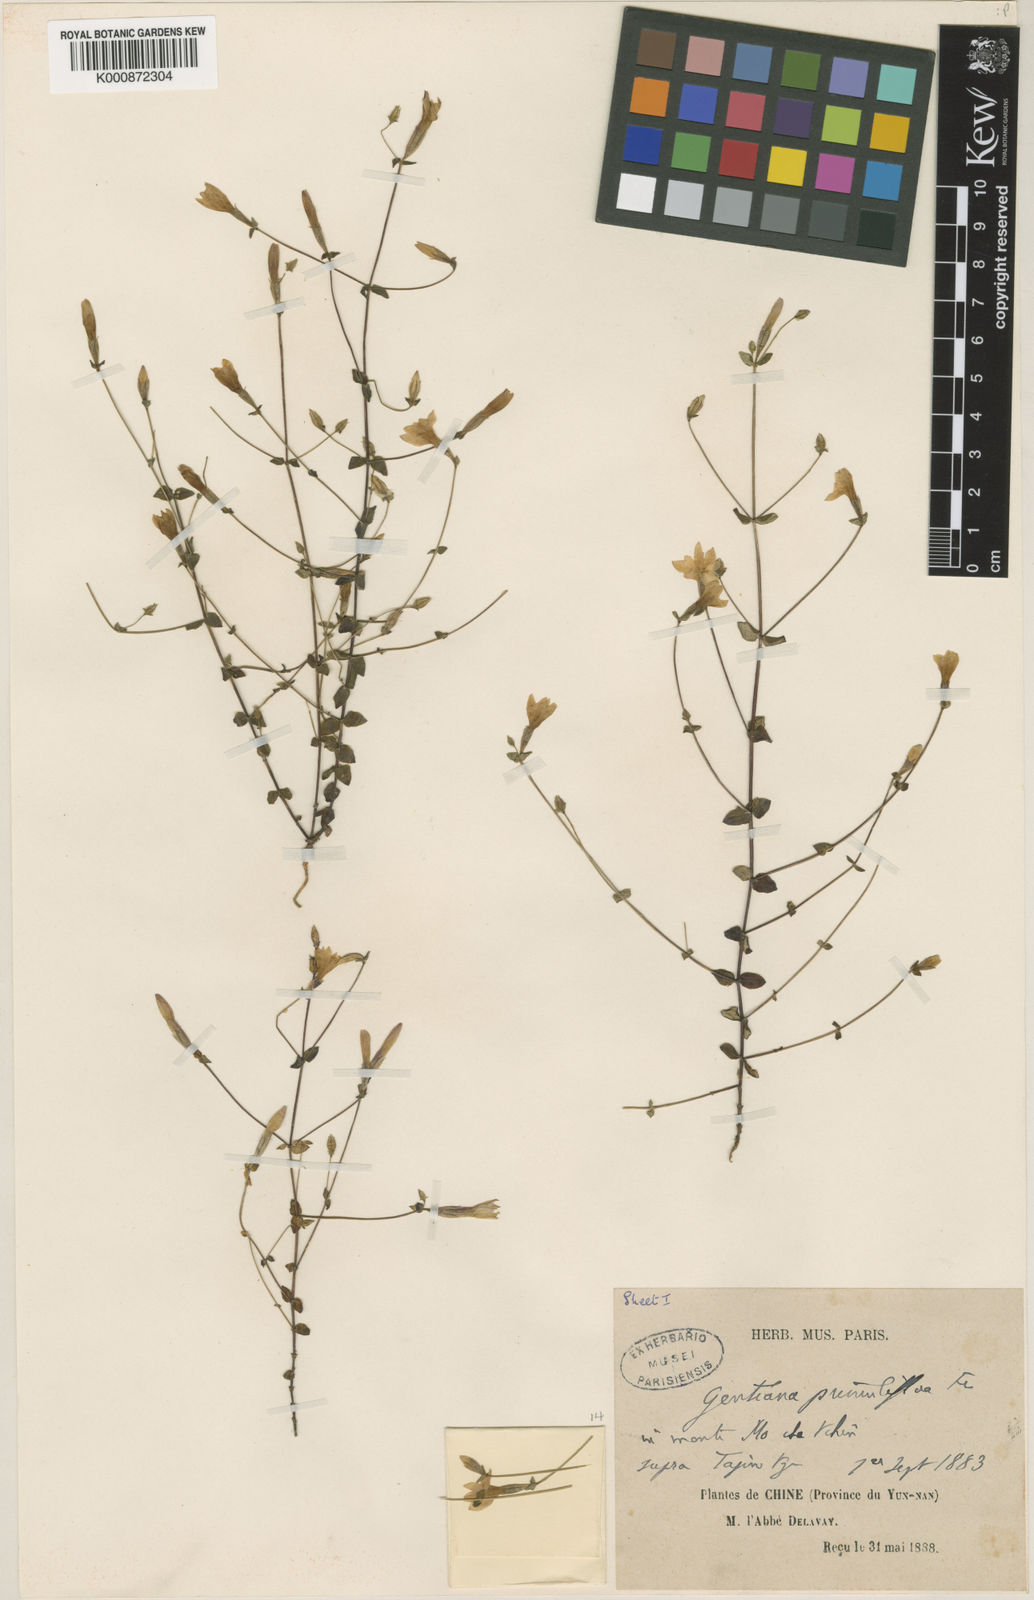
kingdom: Plantae
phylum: Tracheophyta
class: Magnoliopsida
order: Gentianales
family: Gentianaceae
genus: Metagentiana
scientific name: Metagentiana primuliflora
